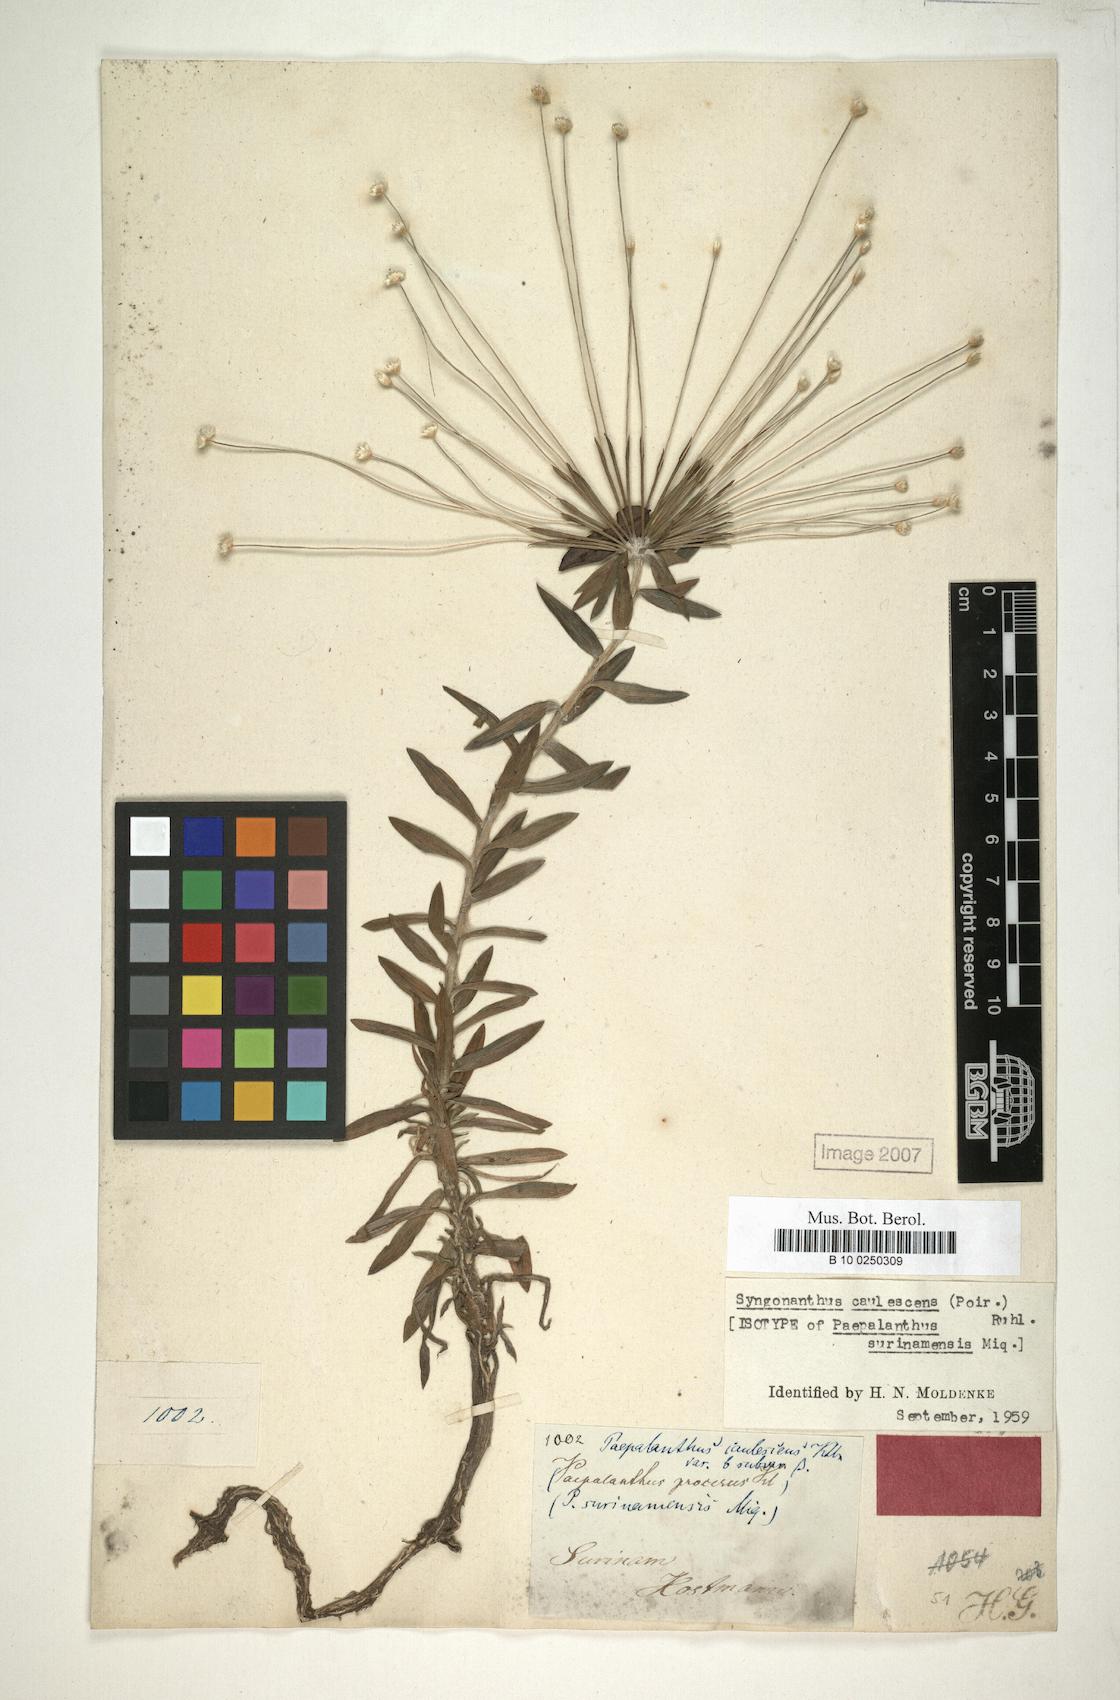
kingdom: Plantae
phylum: Tracheophyta
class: Liliopsida
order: Poales
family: Eriocaulaceae
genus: Syngonanthus
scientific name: Syngonanthus caulescens
